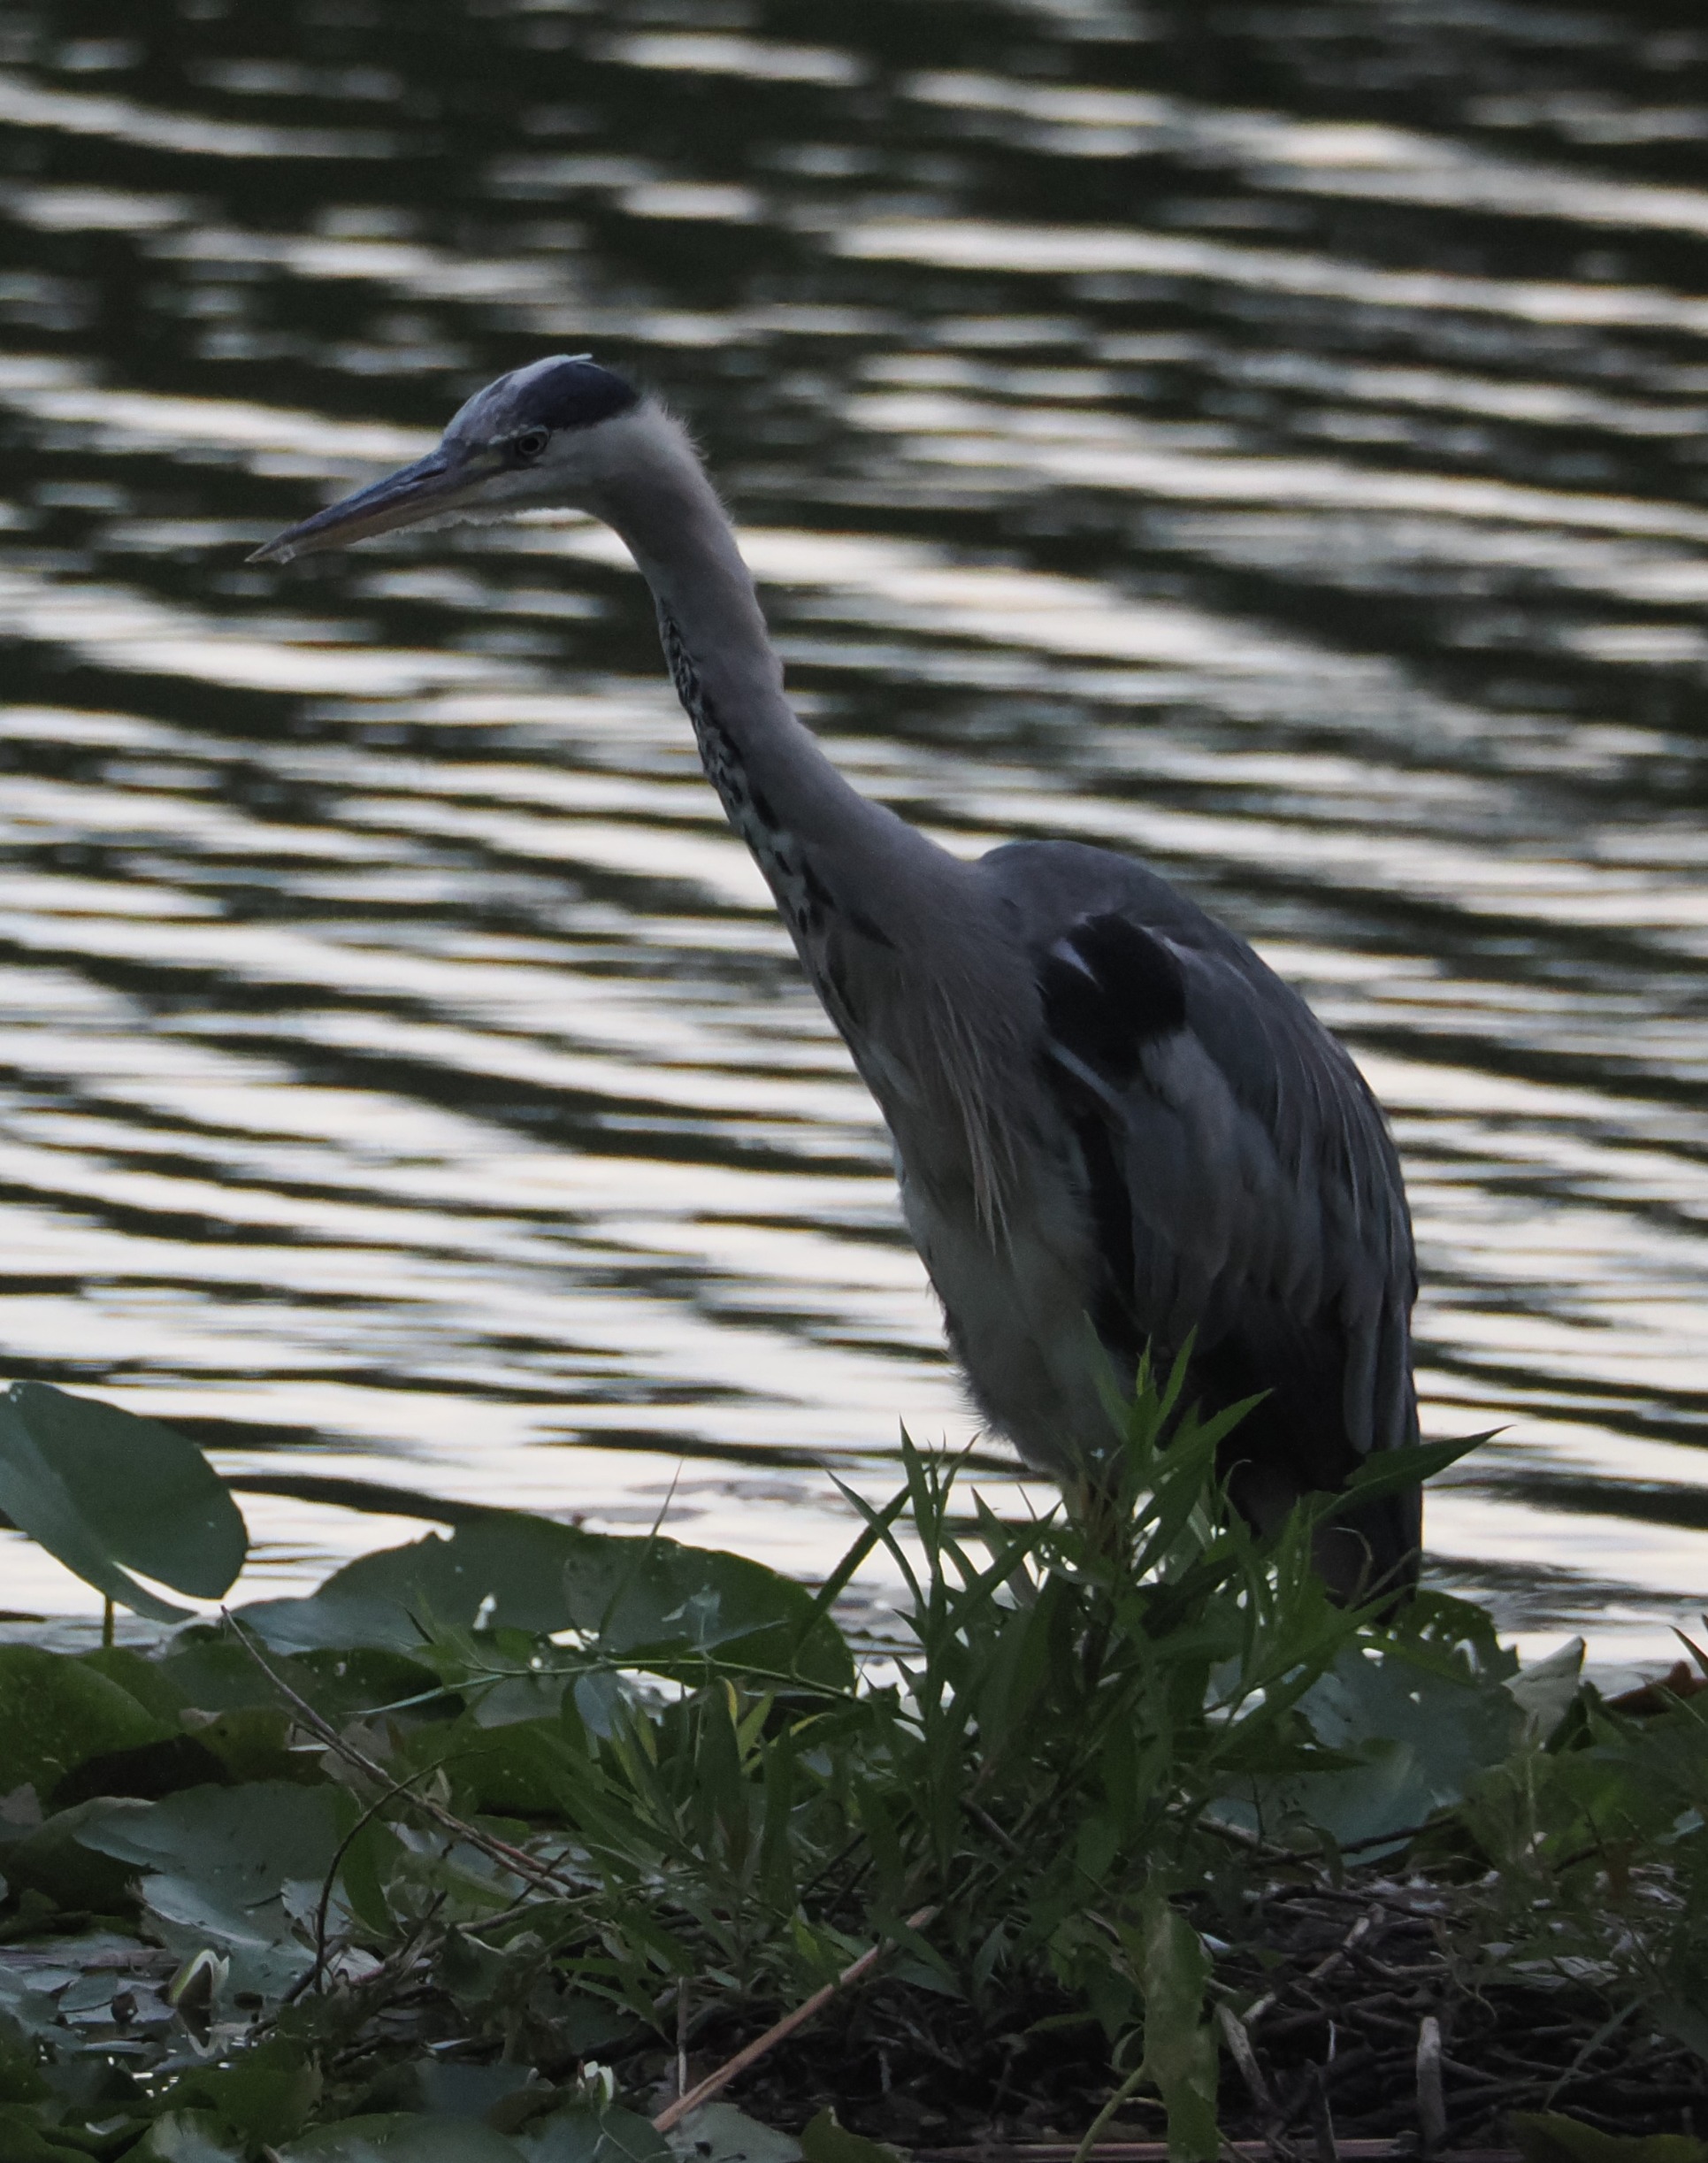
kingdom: Animalia
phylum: Chordata
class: Aves
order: Pelecaniformes
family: Ardeidae
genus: Ardea
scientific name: Ardea cinerea
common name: Fiskehejre
